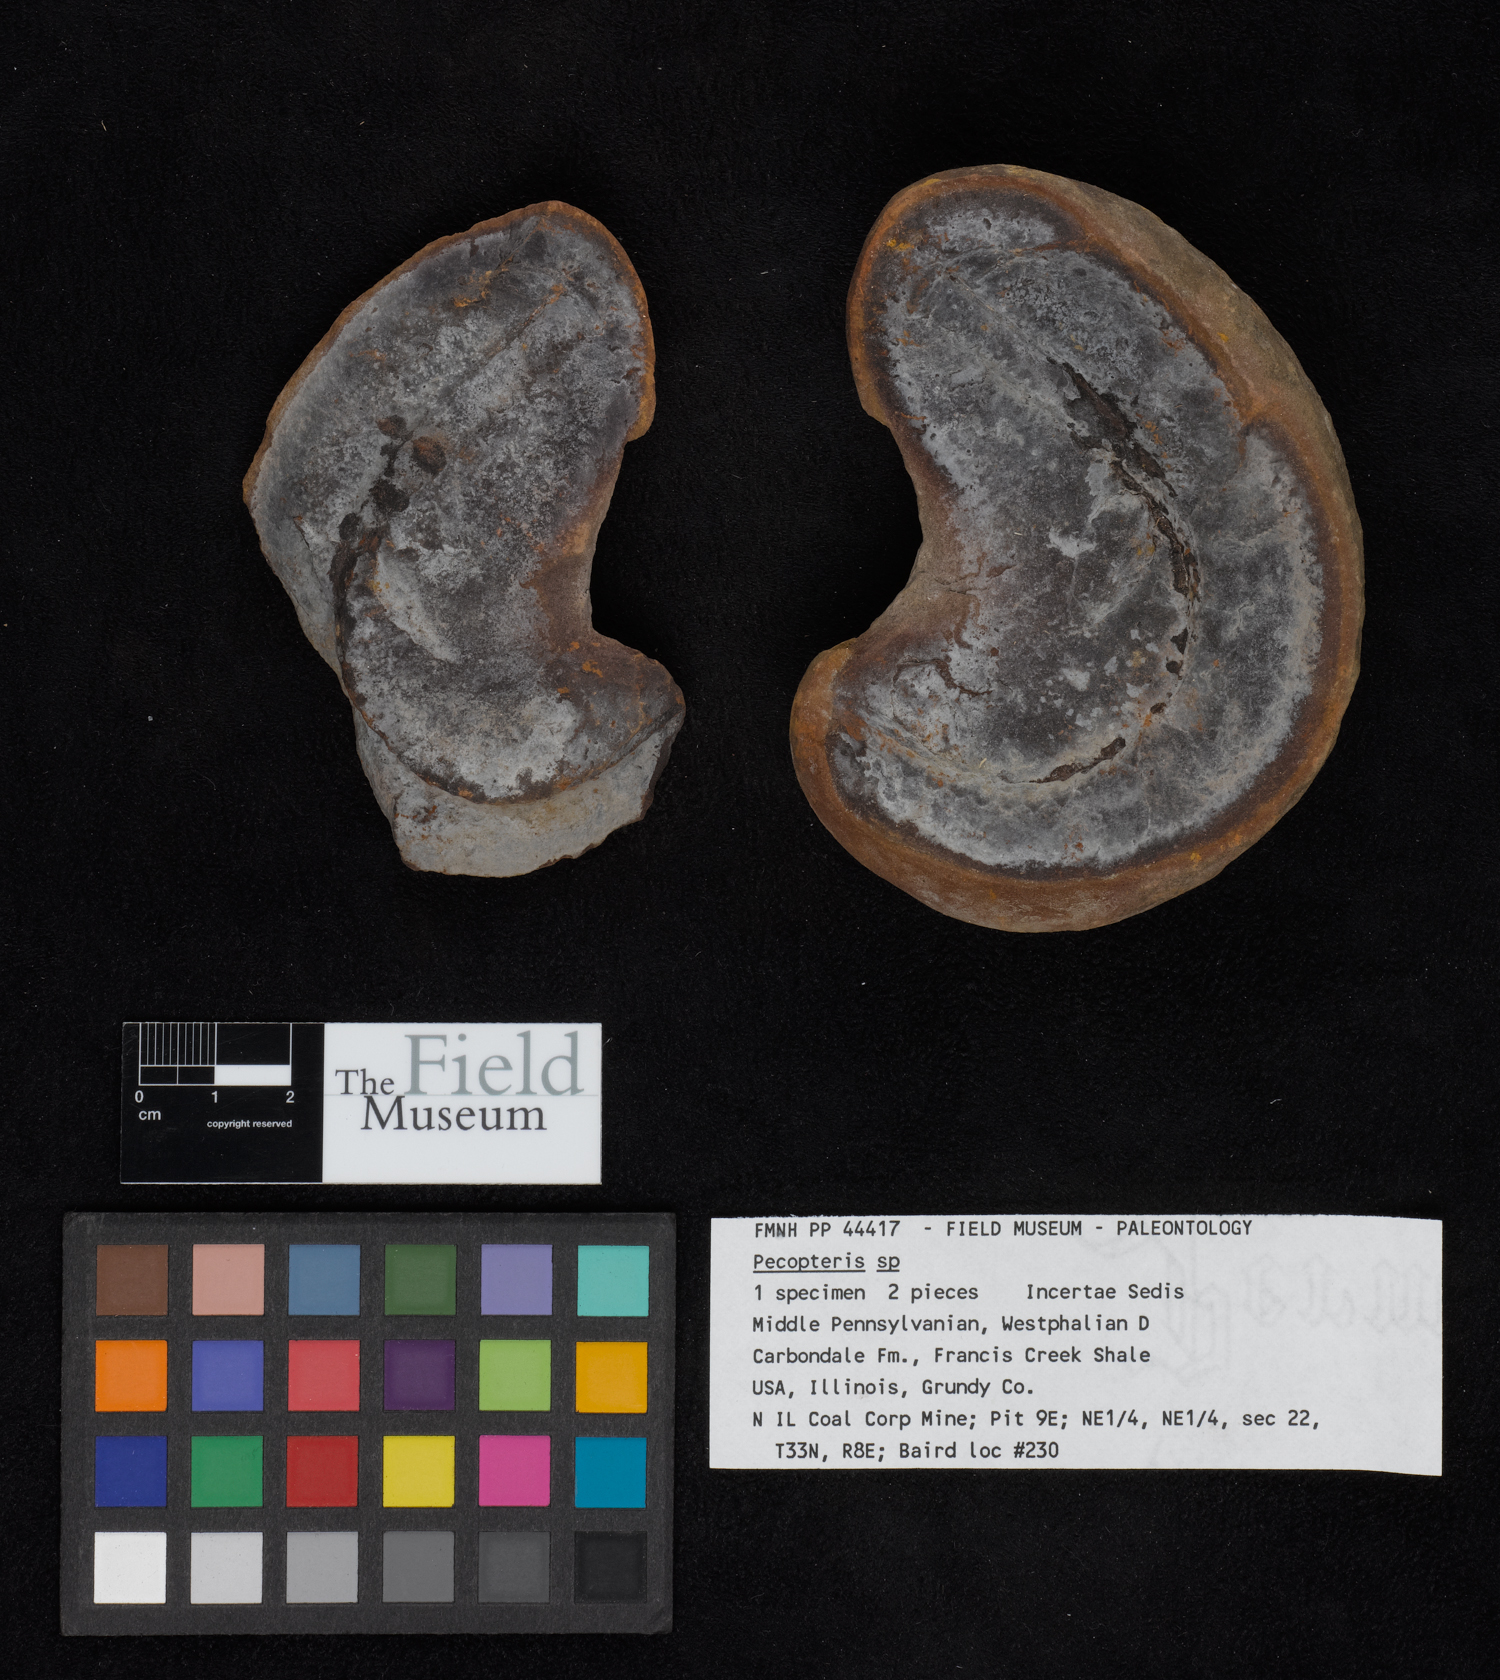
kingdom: Plantae
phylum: Tracheophyta
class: Polypodiopsida
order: Marattiales
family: Asterothecaceae
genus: Pecopteris
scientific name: Pecopteris
